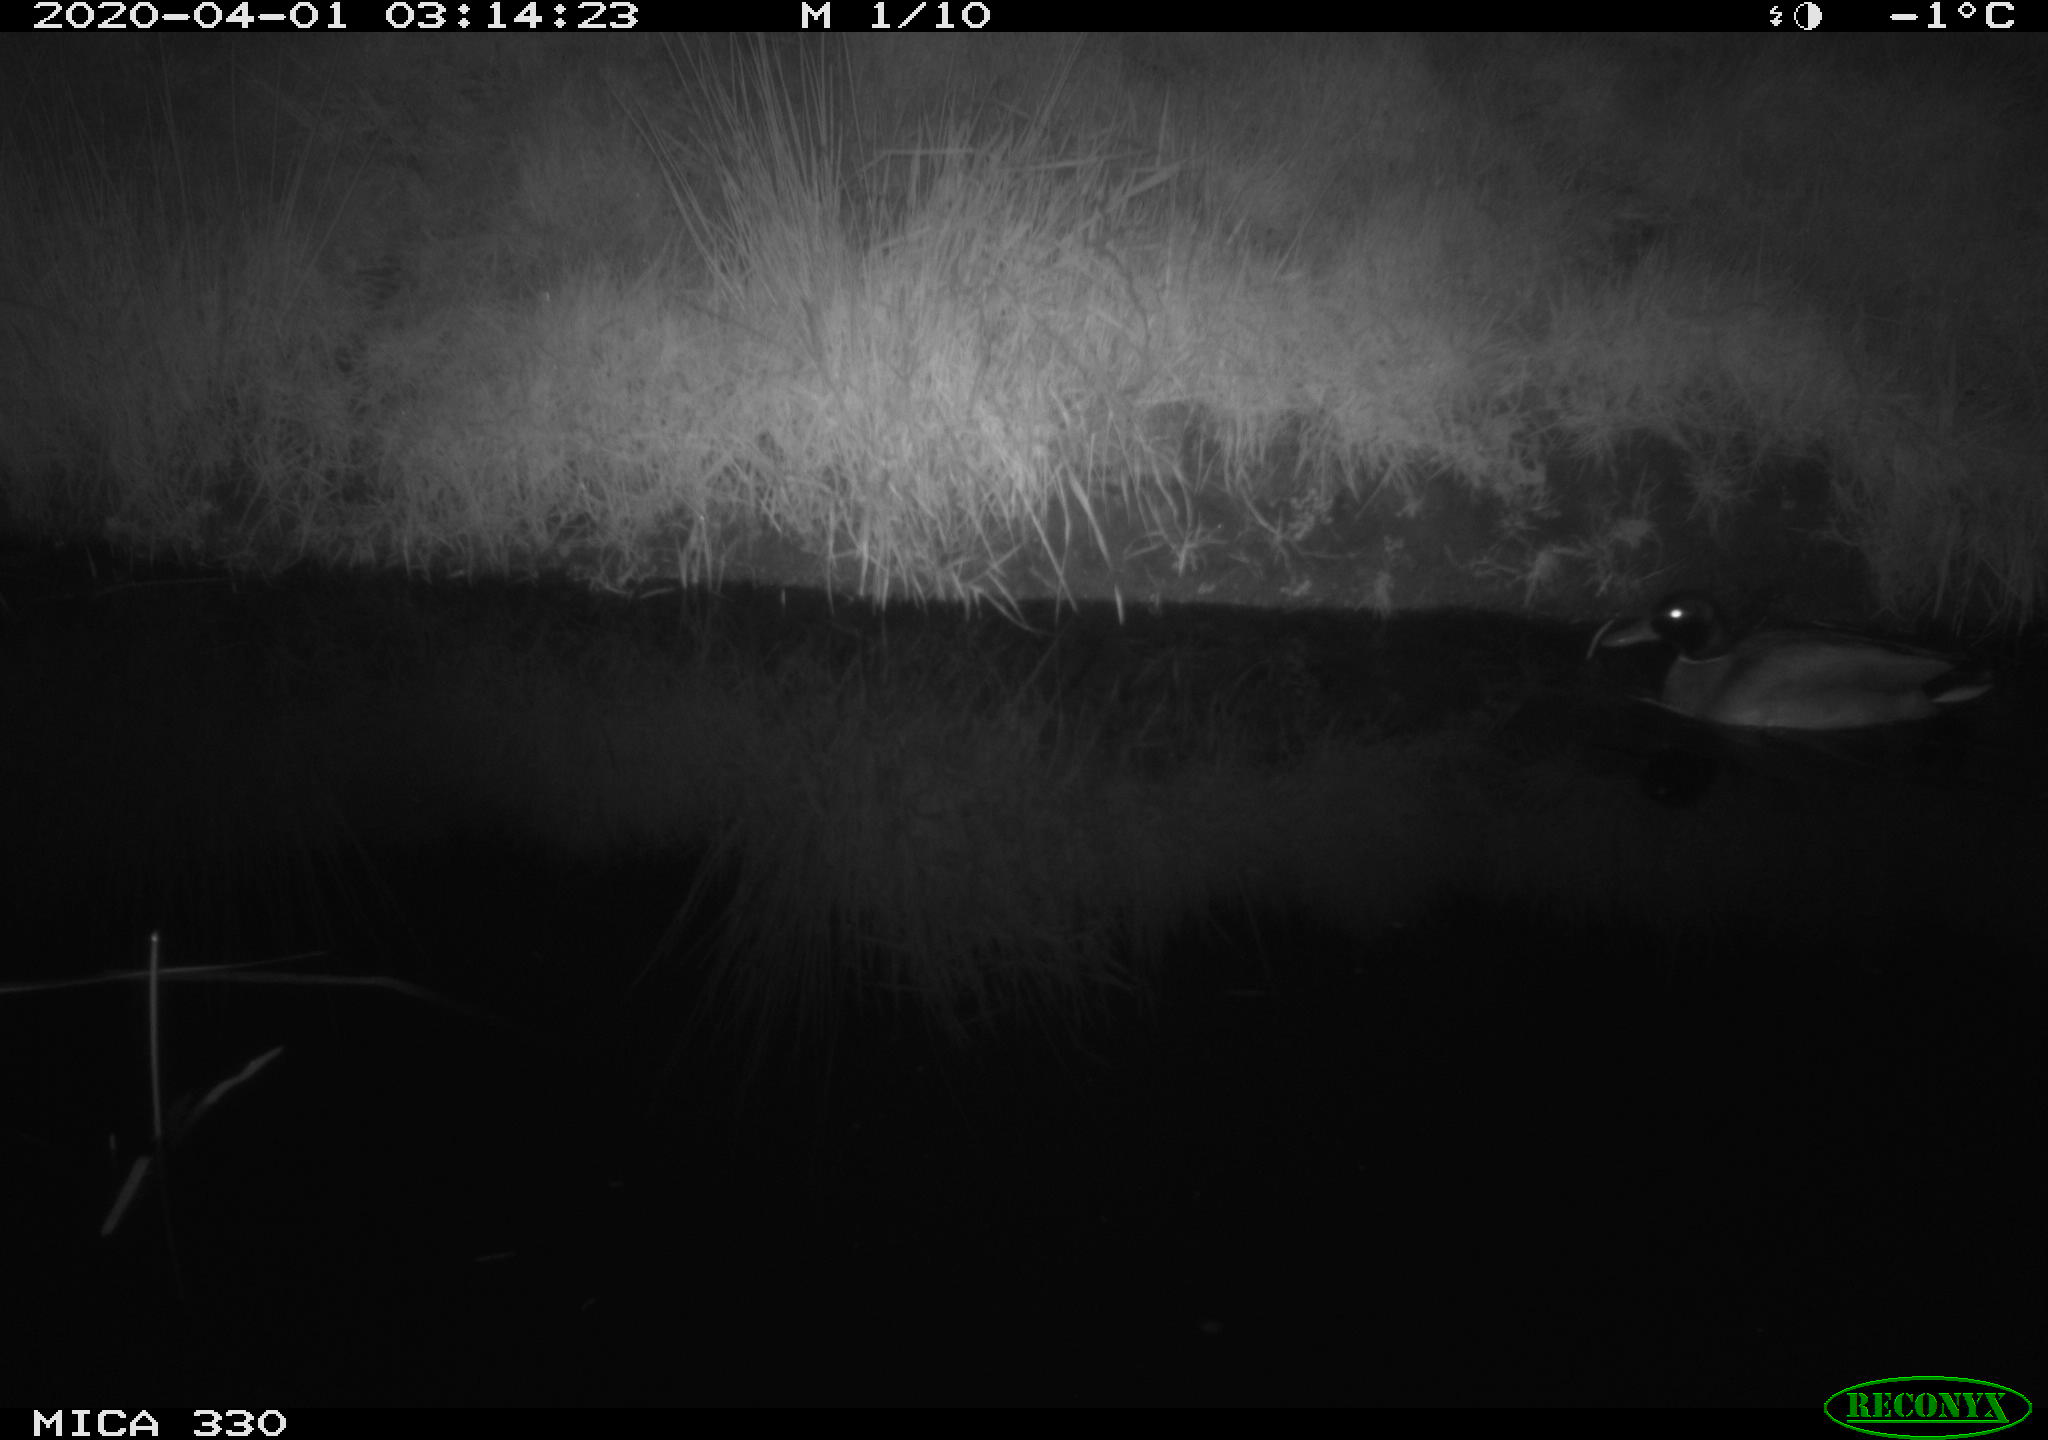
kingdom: Animalia
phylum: Chordata
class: Aves
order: Anseriformes
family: Anatidae
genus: Anas
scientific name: Anas platyrhynchos
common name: Mallard
